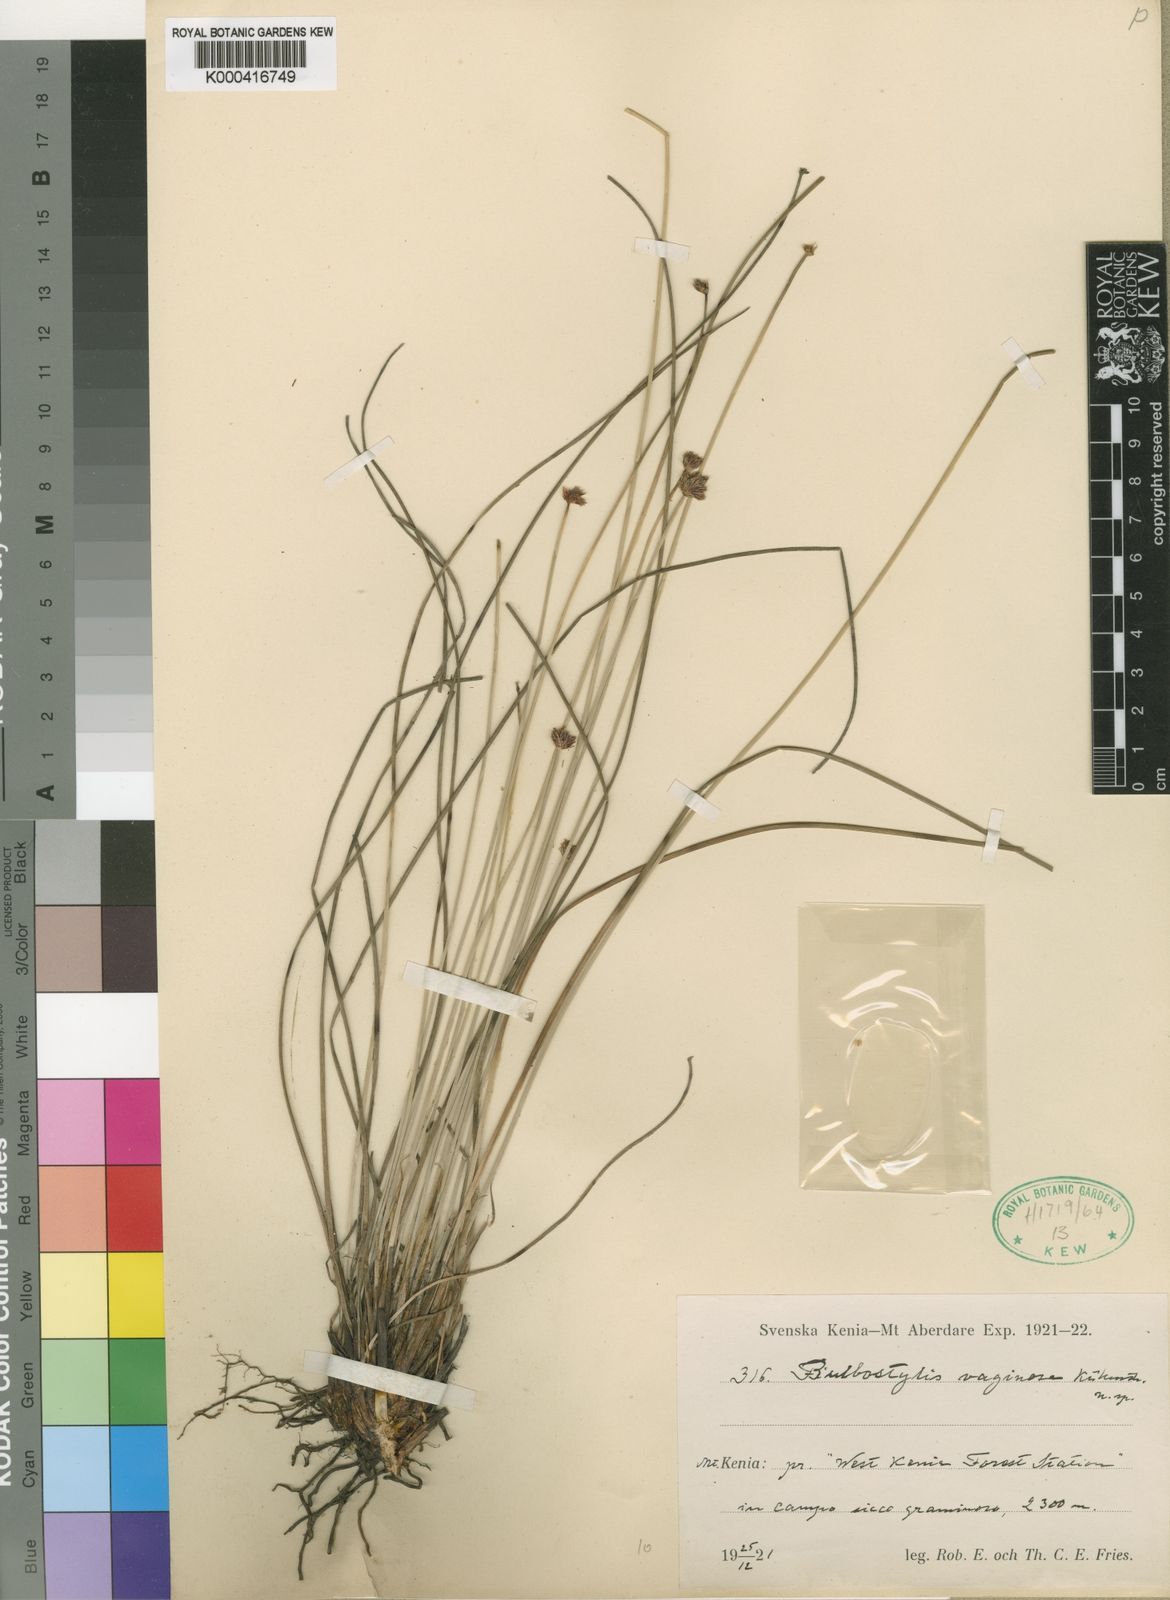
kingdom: Plantae
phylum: Tracheophyta
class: Liliopsida
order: Poales
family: Cyperaceae
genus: Bulbostylis
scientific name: Bulbostylis
